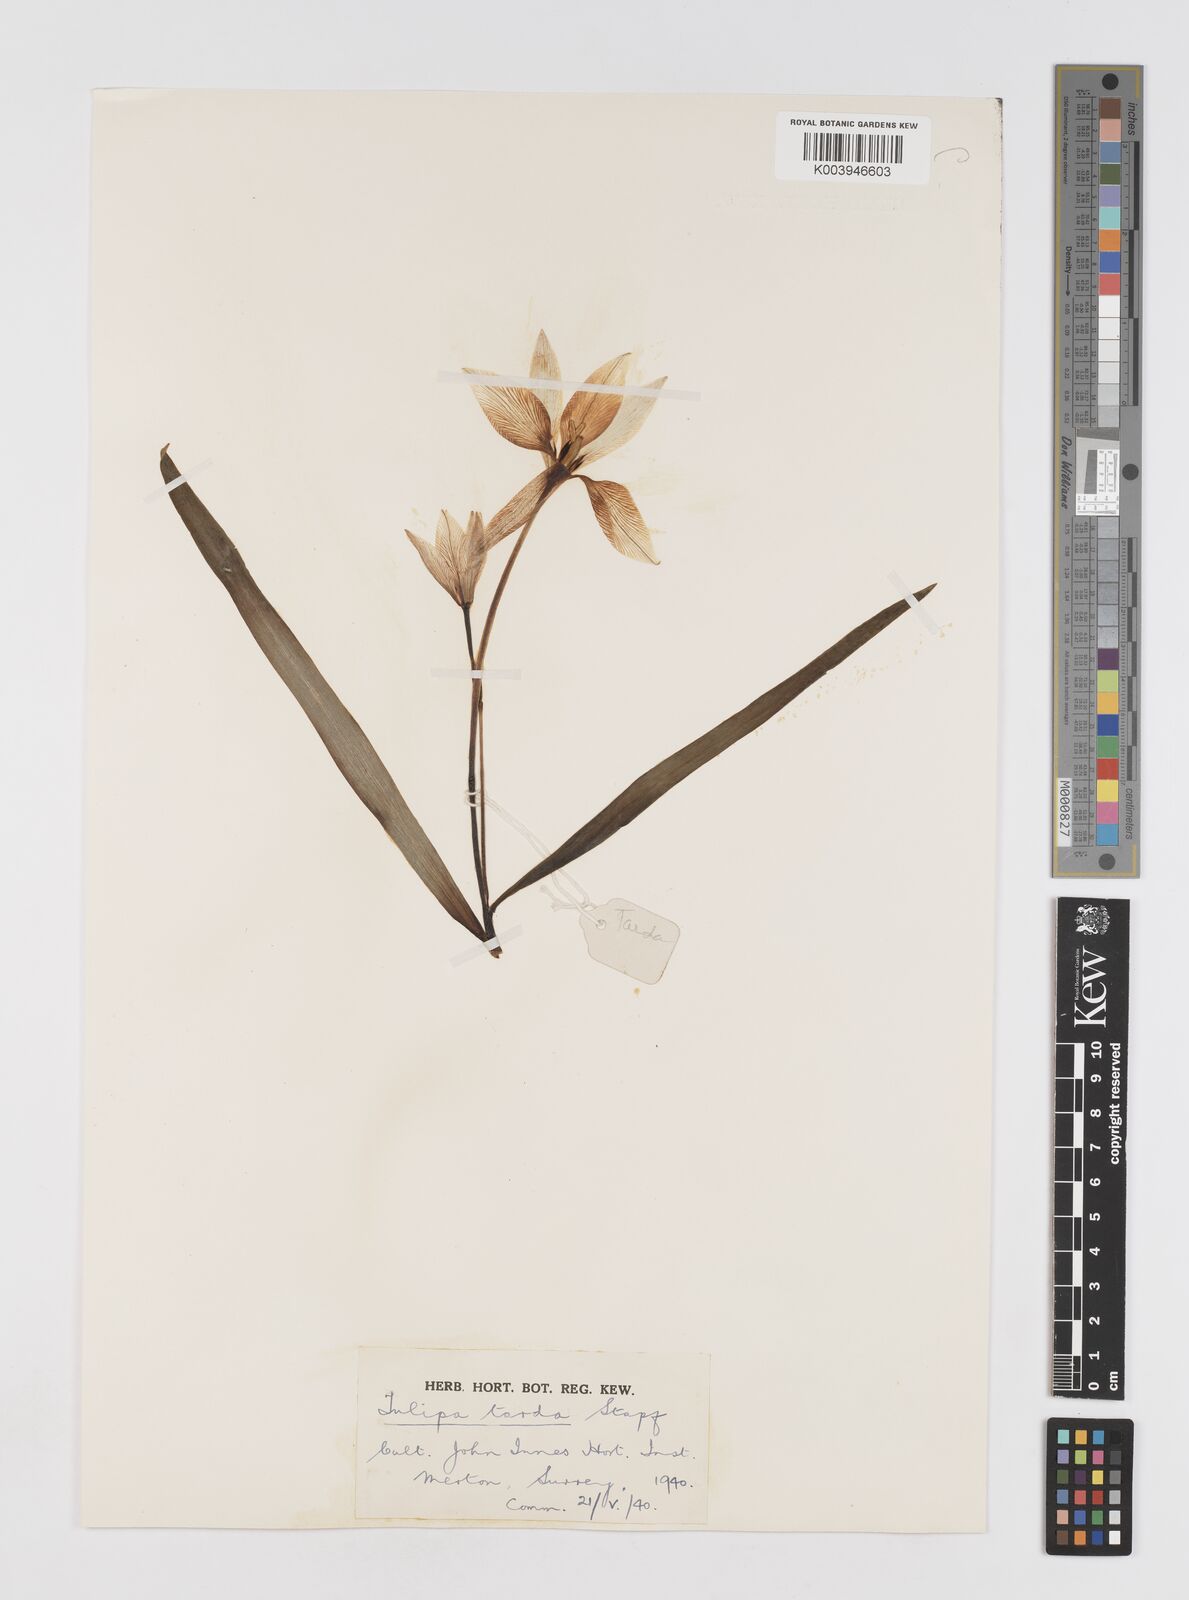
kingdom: Plantae
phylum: Tracheophyta
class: Liliopsida
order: Liliales
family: Liliaceae
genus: Tulipa
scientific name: Tulipa urumiensis
